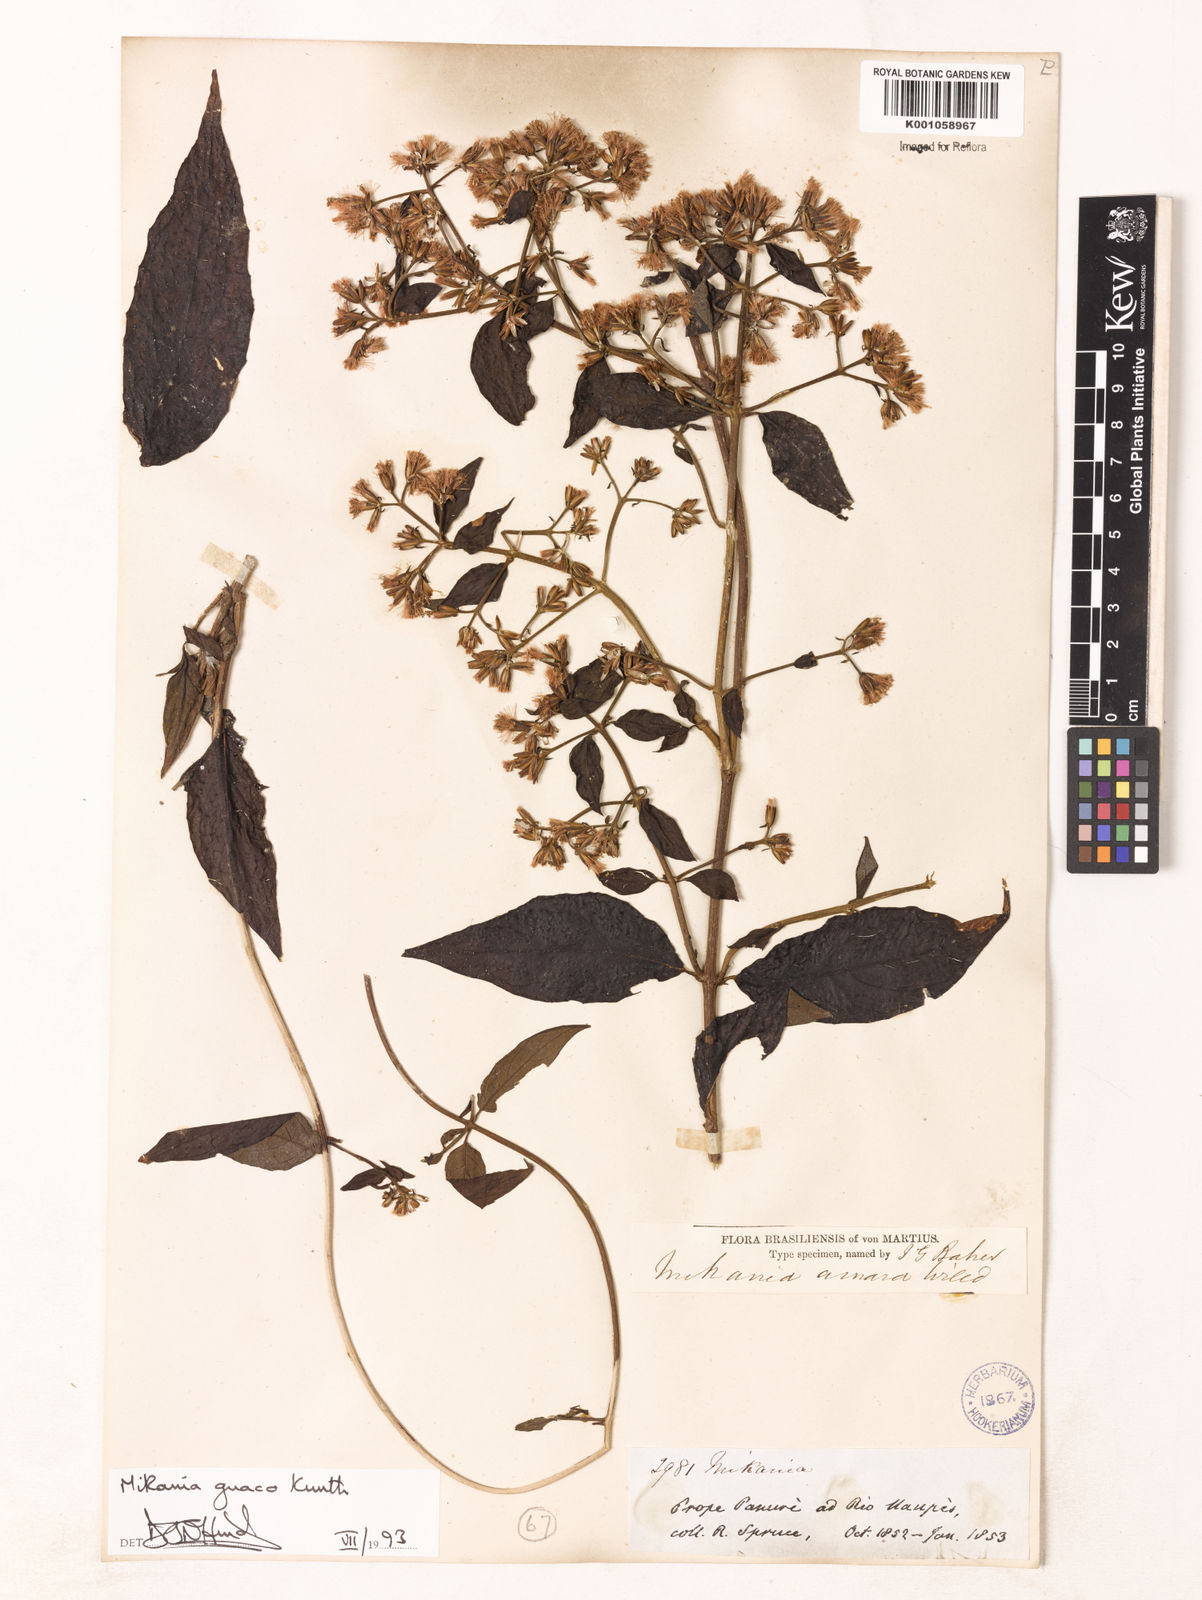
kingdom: Plantae
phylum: Tracheophyta
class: Magnoliopsida
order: Asterales
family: Asteraceae
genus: Mikania
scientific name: Mikania guaco
